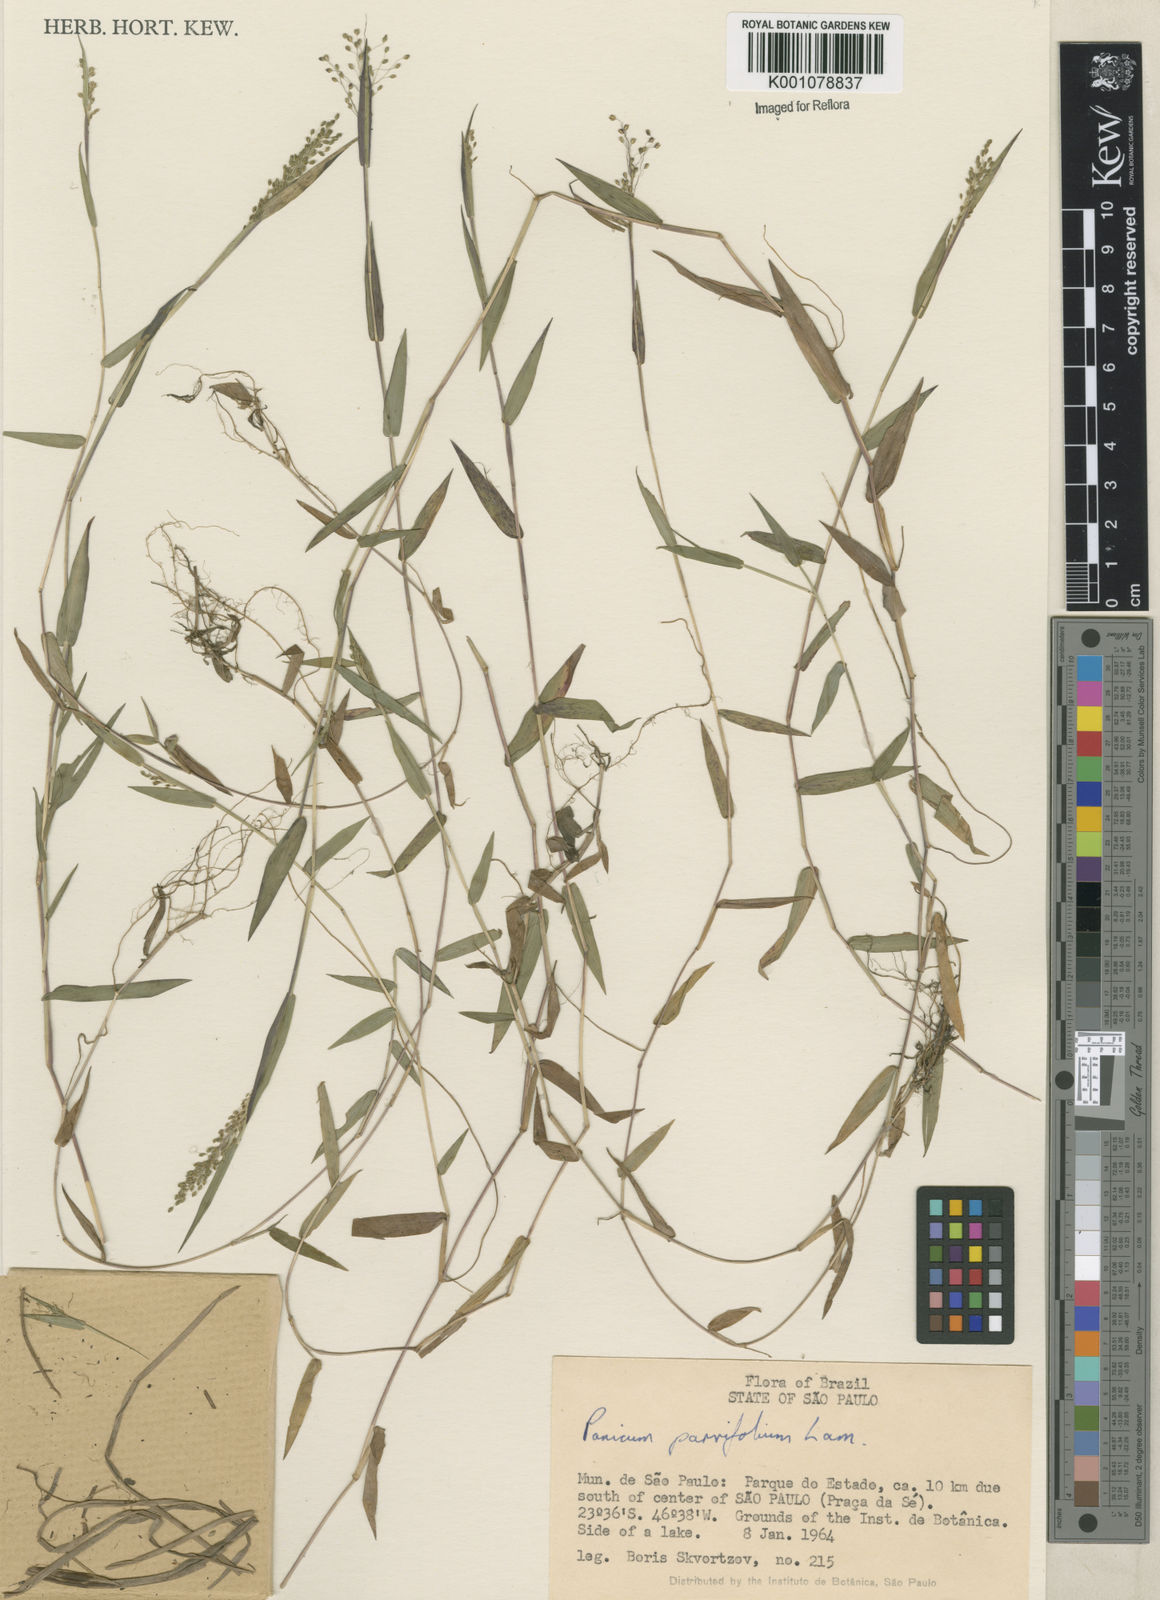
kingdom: Plantae
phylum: Tracheophyta
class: Liliopsida
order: Poales
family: Poaceae
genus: Trichanthecium
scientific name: Trichanthecium schwackeanum
